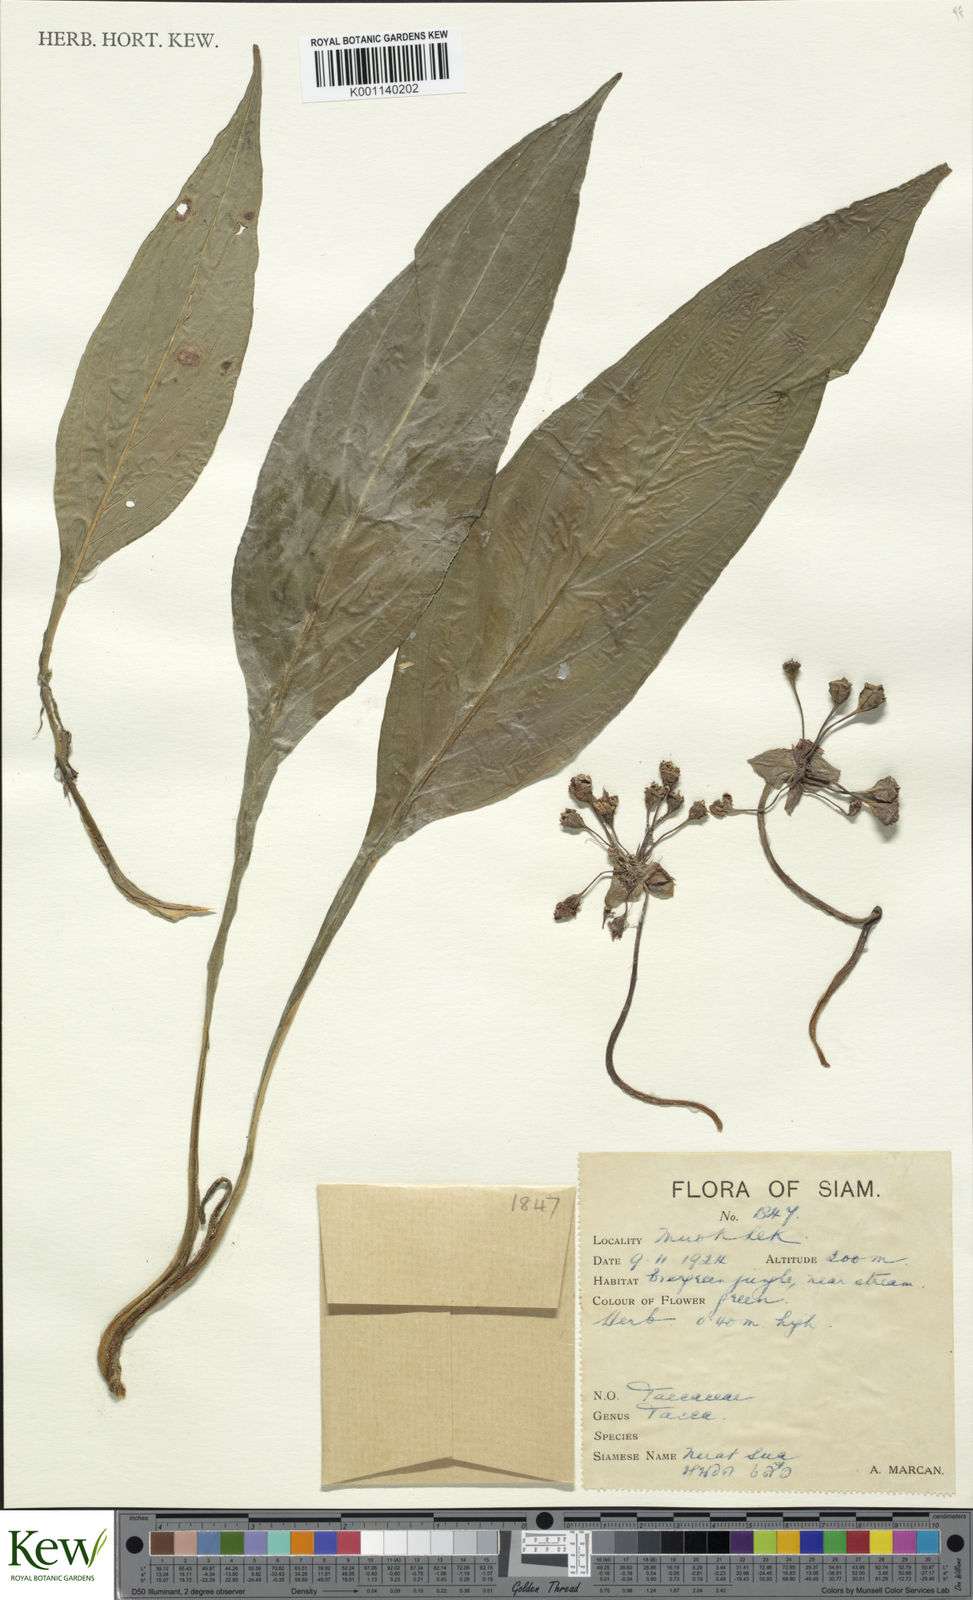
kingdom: Plantae
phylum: Tracheophyta
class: Liliopsida
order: Dioscoreales
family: Dioscoreaceae
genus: Tacca
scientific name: Tacca plantaginea
